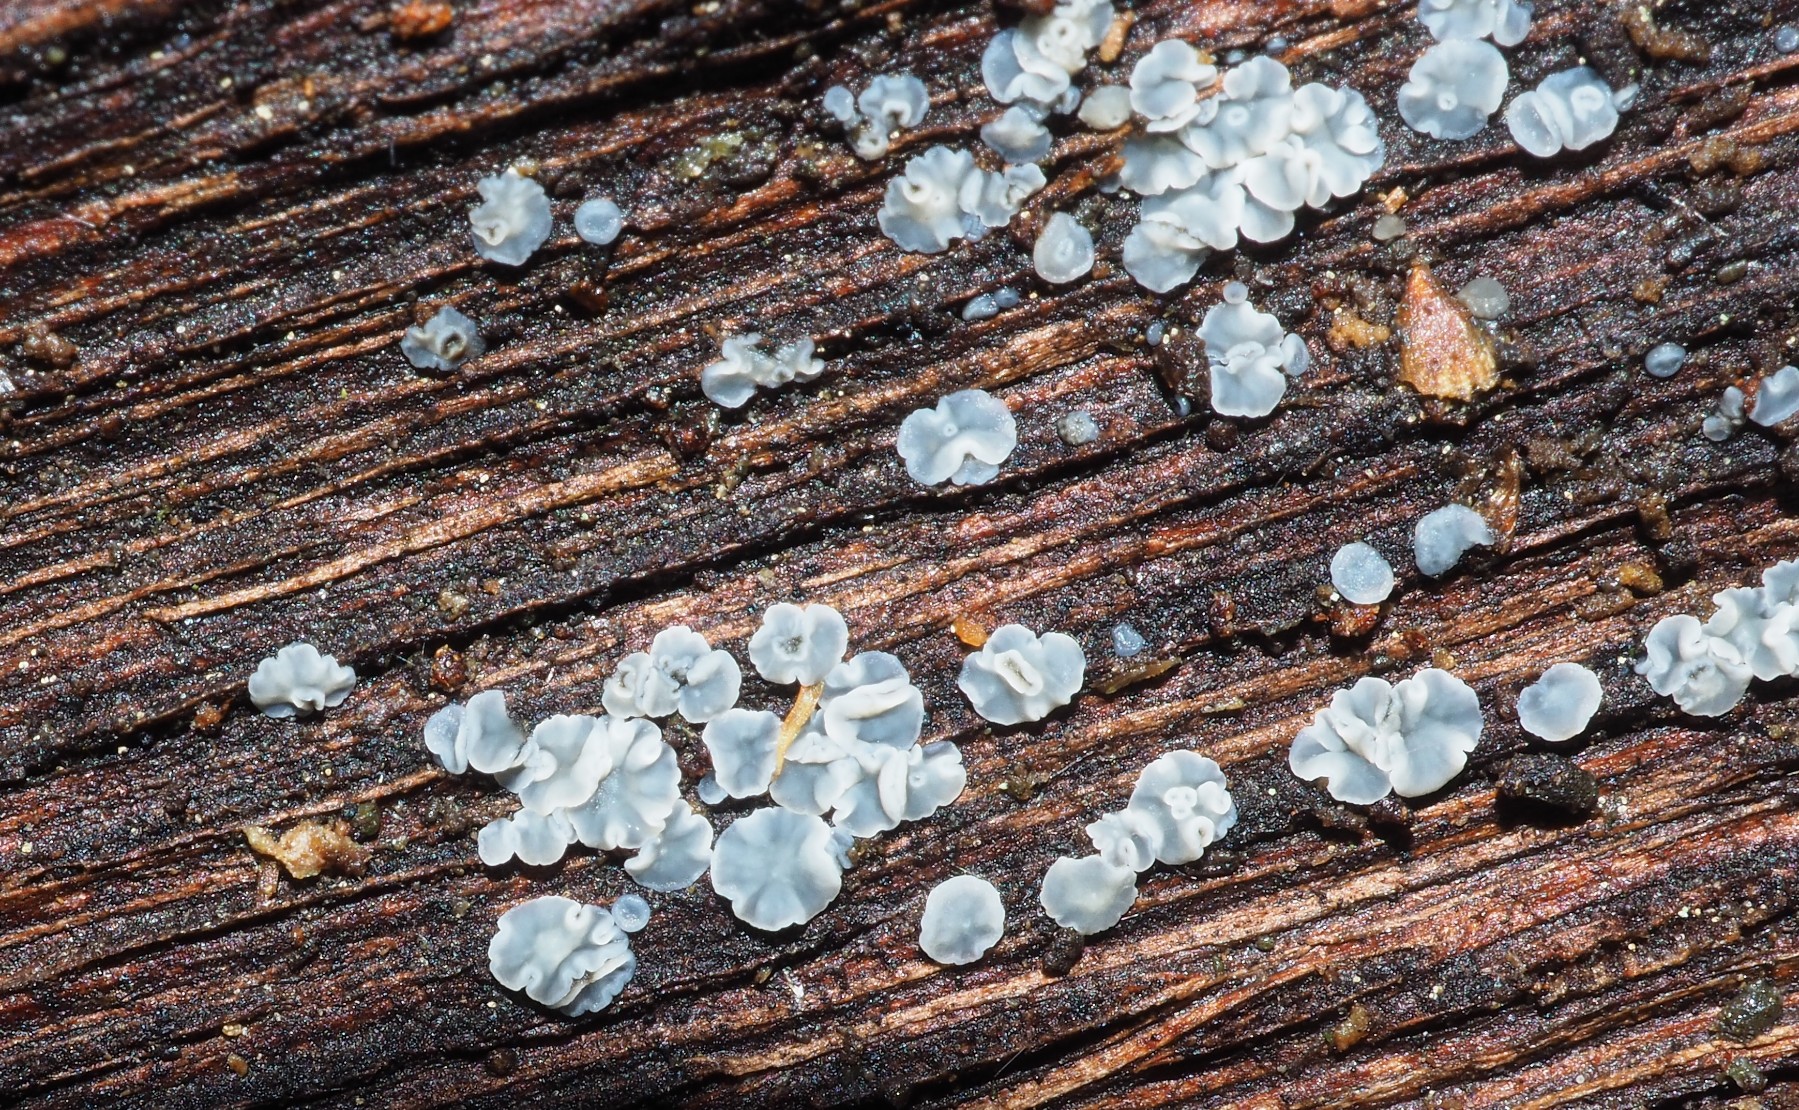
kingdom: Fungi
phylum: Ascomycota
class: Leotiomycetes
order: Helotiales
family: Mollisiaceae
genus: Mollisia
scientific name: Mollisia
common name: gråskive
